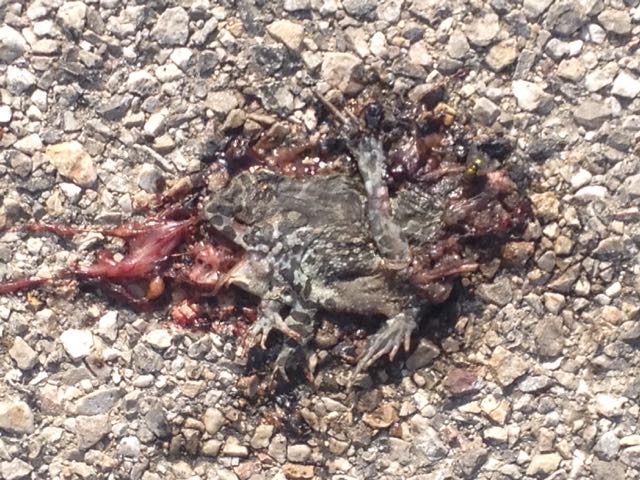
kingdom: Animalia
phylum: Chordata
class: Amphibia
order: Anura
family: Bufonidae
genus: Bufotes
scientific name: Bufotes viridis
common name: European green toad
